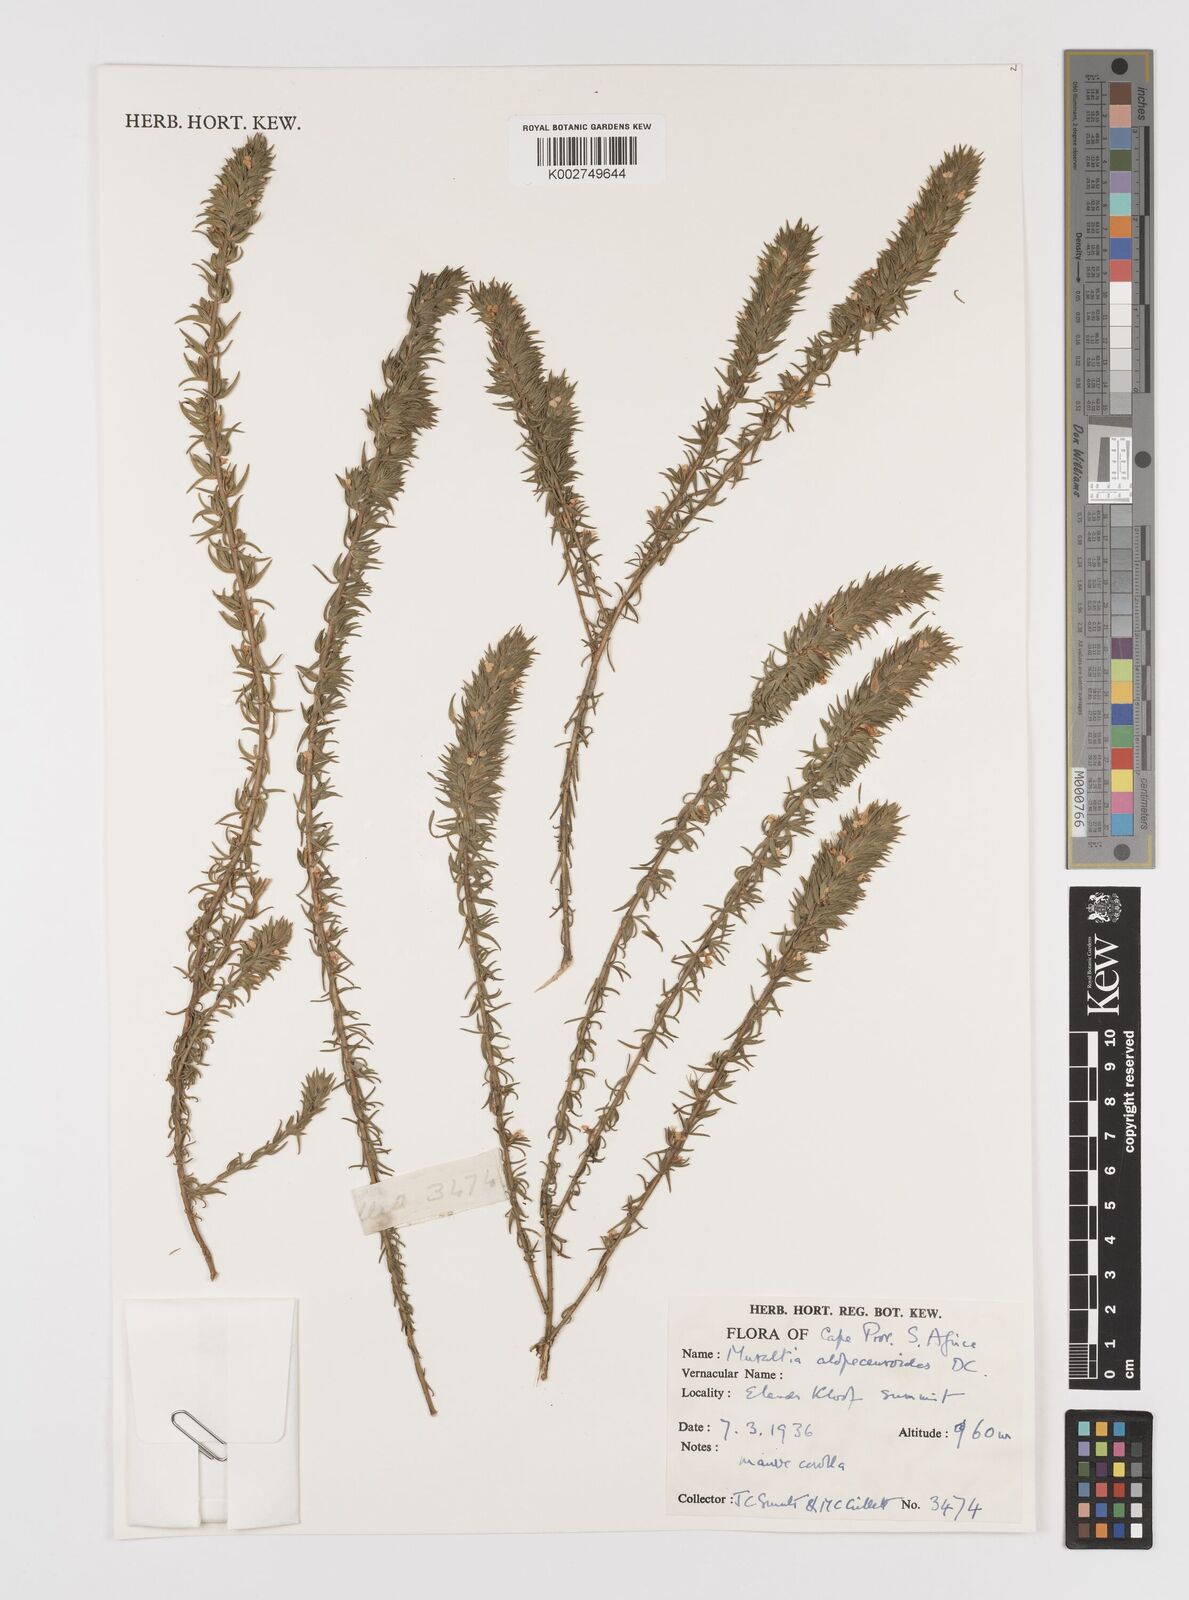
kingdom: Plantae
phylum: Tracheophyta
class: Magnoliopsida
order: Fabales
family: Polygalaceae
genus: Muraltia
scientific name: Muraltia alopecuroides
